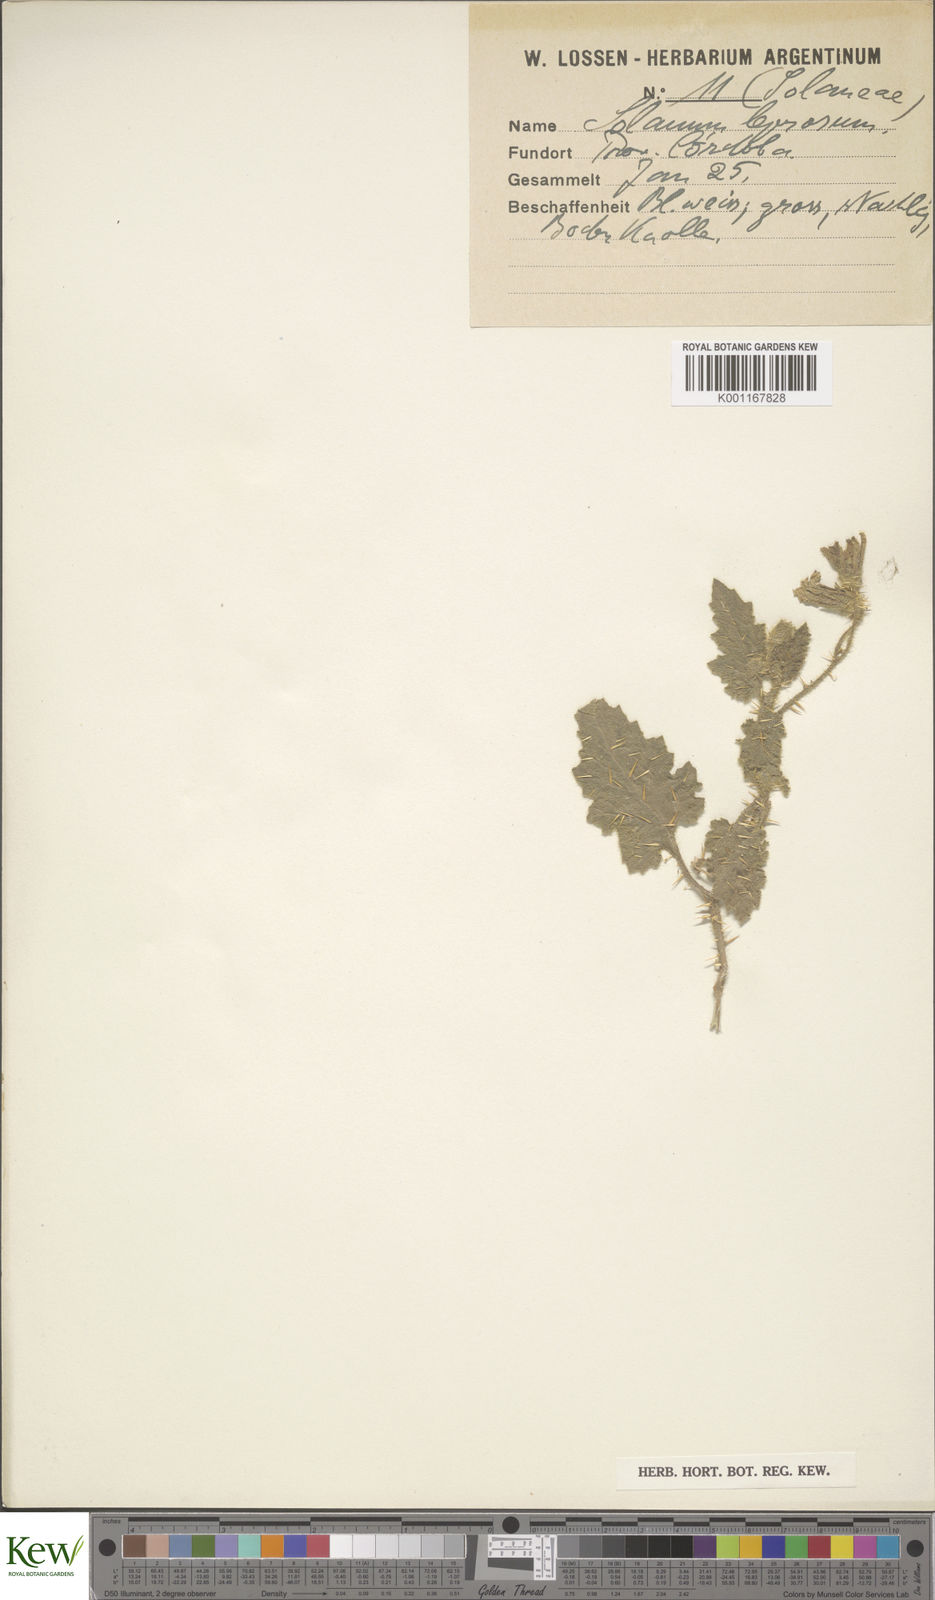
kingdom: Plantae
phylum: Tracheophyta
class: Magnoliopsida
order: Solanales
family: Solanaceae
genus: Solanum
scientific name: Solanum elaeagnifolium
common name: Silverleaf nightshade
